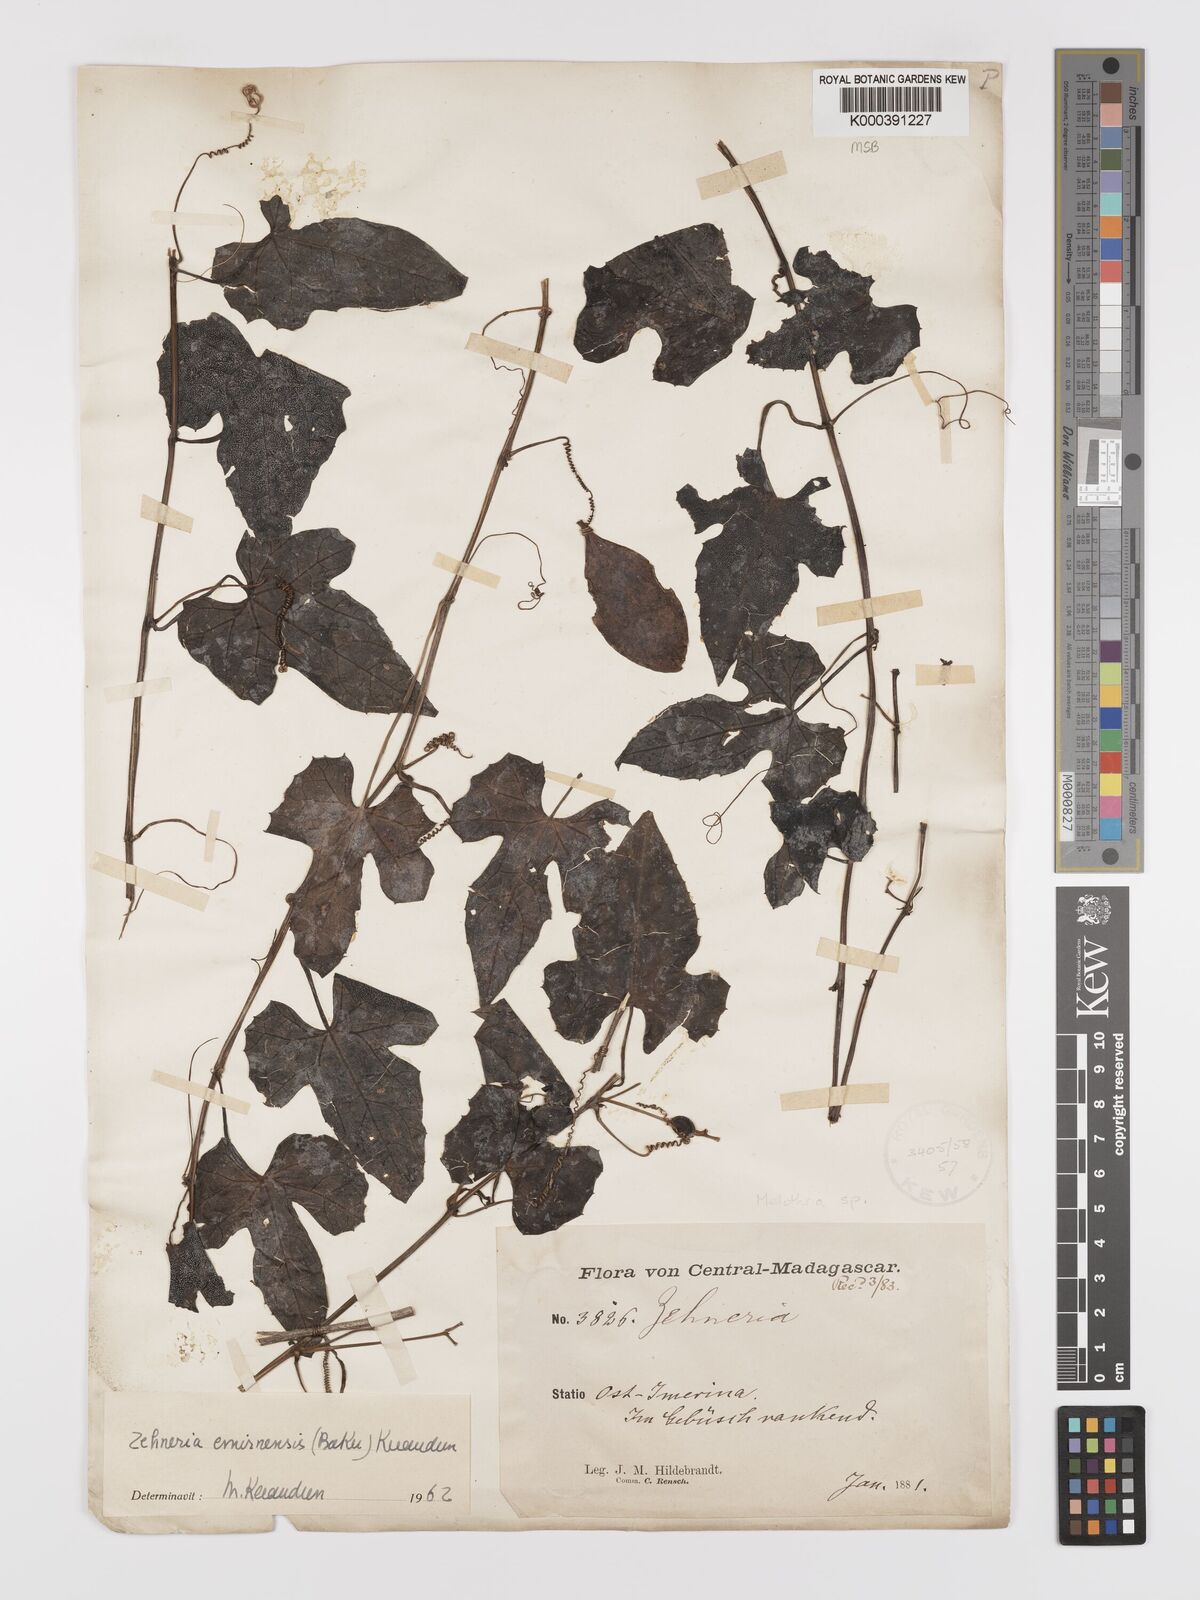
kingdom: Plantae
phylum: Tracheophyta
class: Magnoliopsida
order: Cucurbitales
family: Cucurbitaceae
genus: Zehneria
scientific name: Zehneria emirnensis
